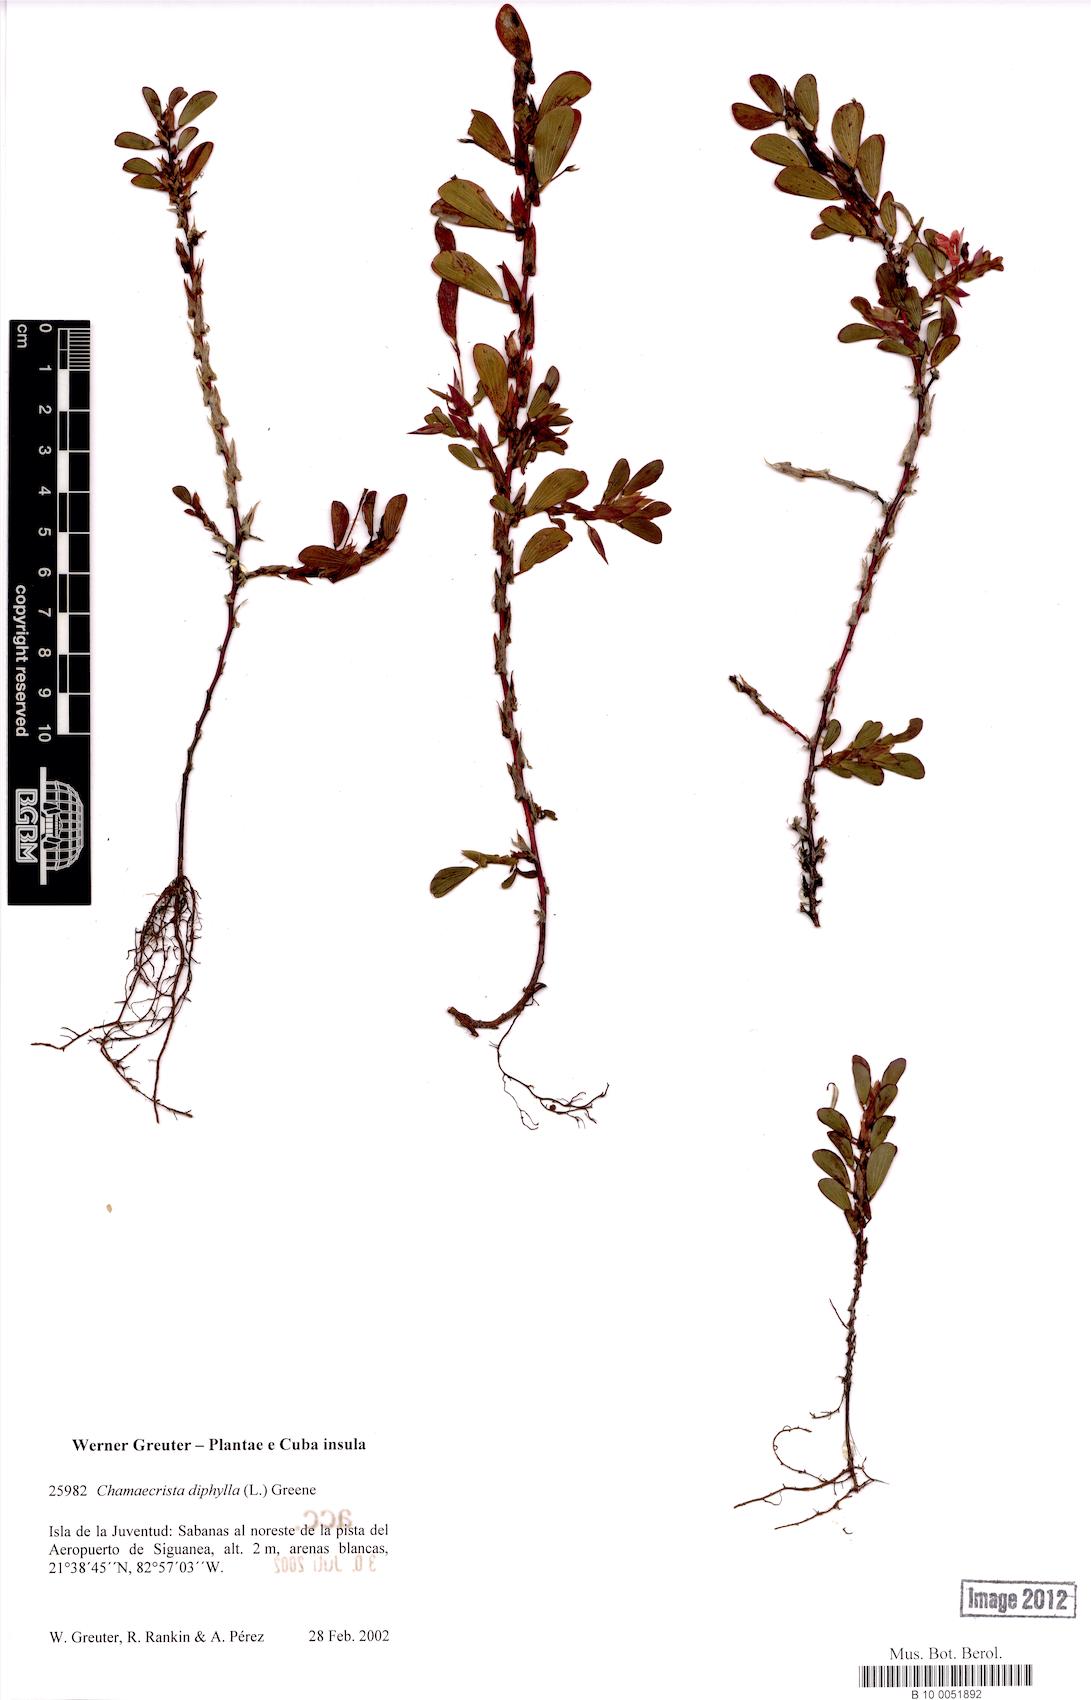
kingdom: Plantae
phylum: Tracheophyta
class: Magnoliopsida
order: Fabales
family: Fabaceae
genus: Chamaecrista
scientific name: Chamaecrista diphylla
